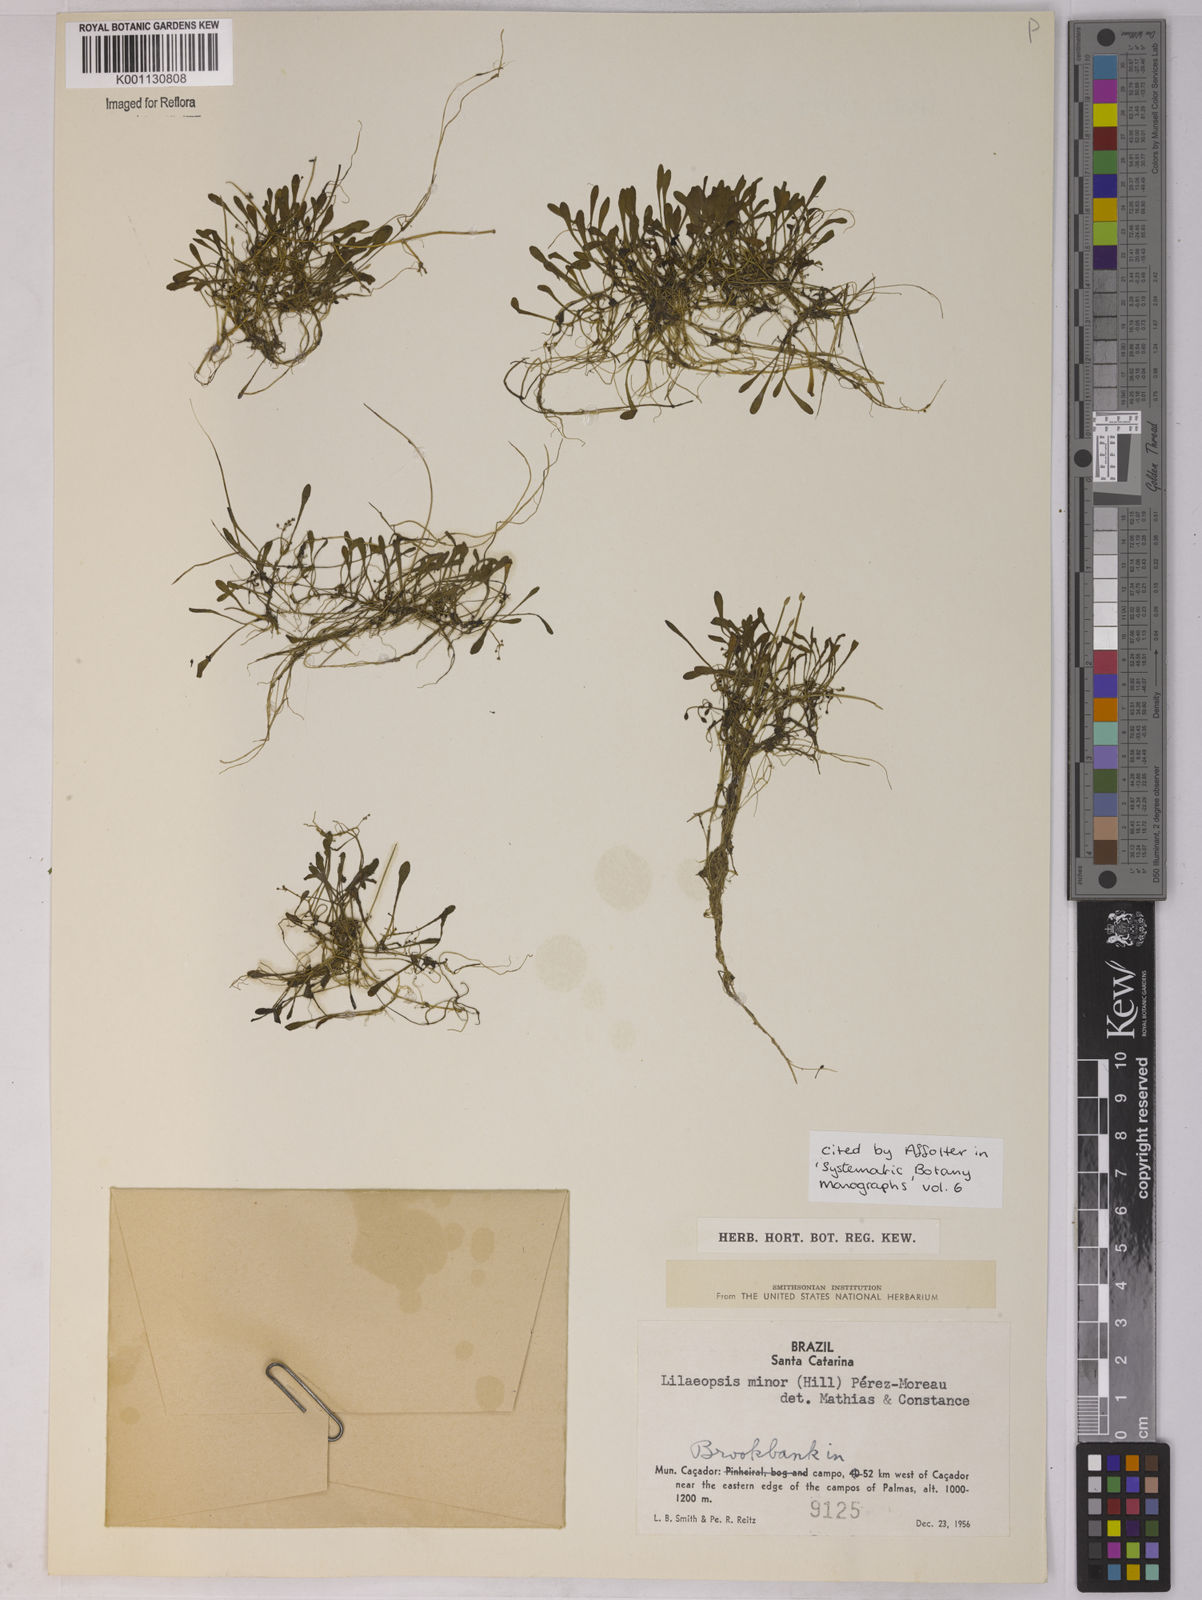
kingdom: Plantae
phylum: Tracheophyta
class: Magnoliopsida
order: Apiales
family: Apiaceae
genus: Lilaeopsis
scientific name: Lilaeopsis minor
